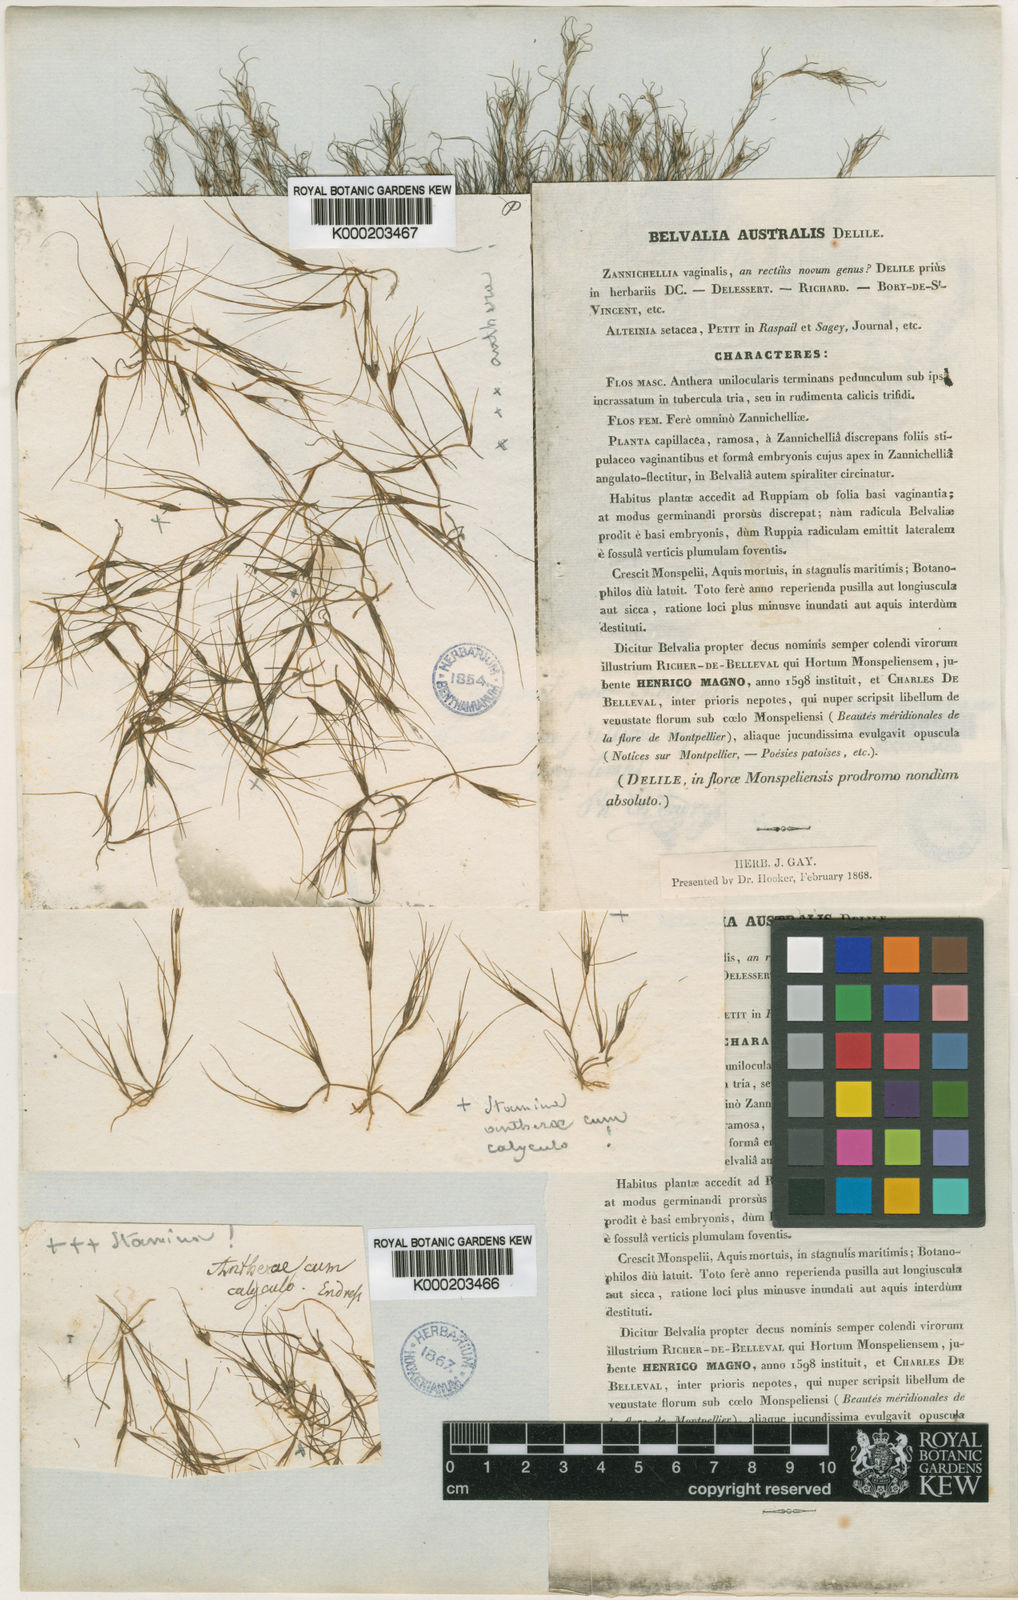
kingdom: Plantae
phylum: Tracheophyta
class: Liliopsida
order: Alismatales
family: Potamogetonaceae
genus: Althenia
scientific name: Althenia filiformis
